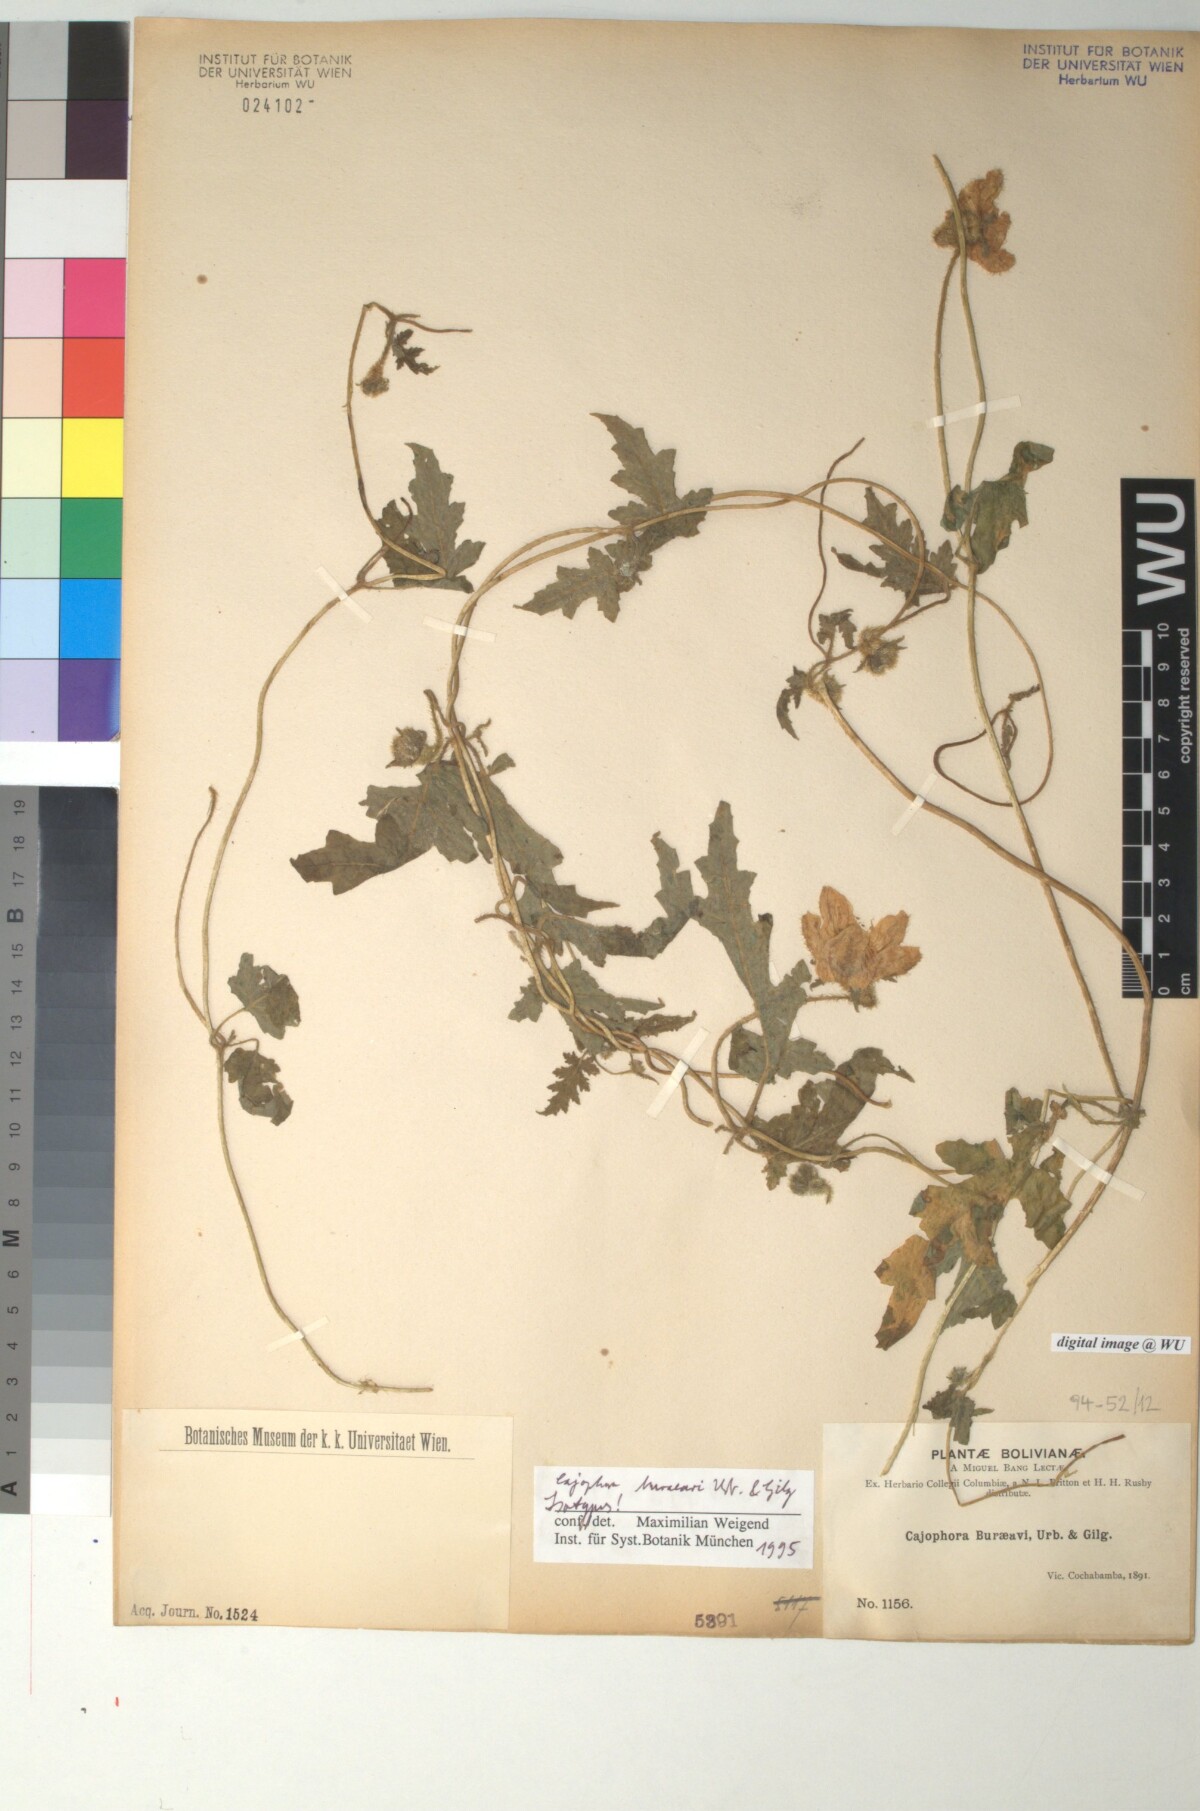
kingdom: Plantae
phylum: Tracheophyta
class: Magnoliopsida
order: Cornales
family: Loasaceae
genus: Caiophora
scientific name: Caiophora buraeavii
